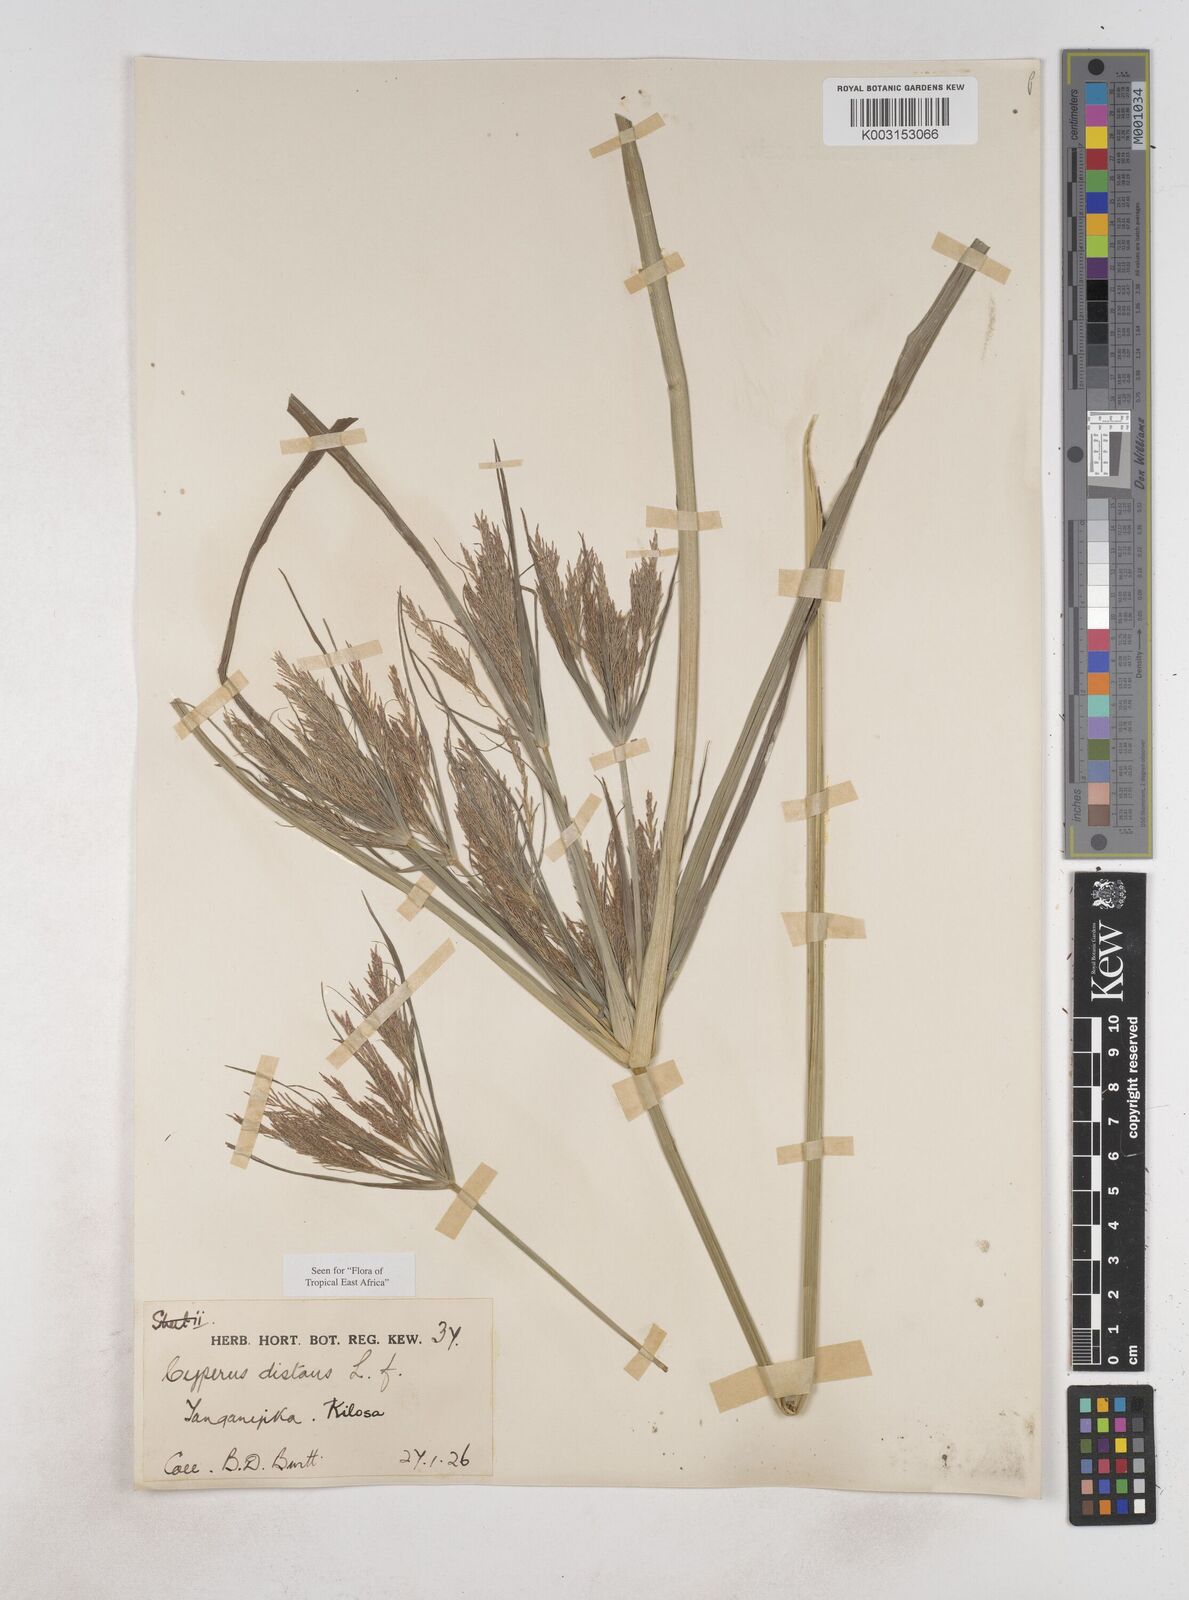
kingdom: Plantae
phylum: Tracheophyta
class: Liliopsida
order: Poales
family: Cyperaceae
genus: Cyperus
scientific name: Cyperus distans
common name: Slender cyperus
